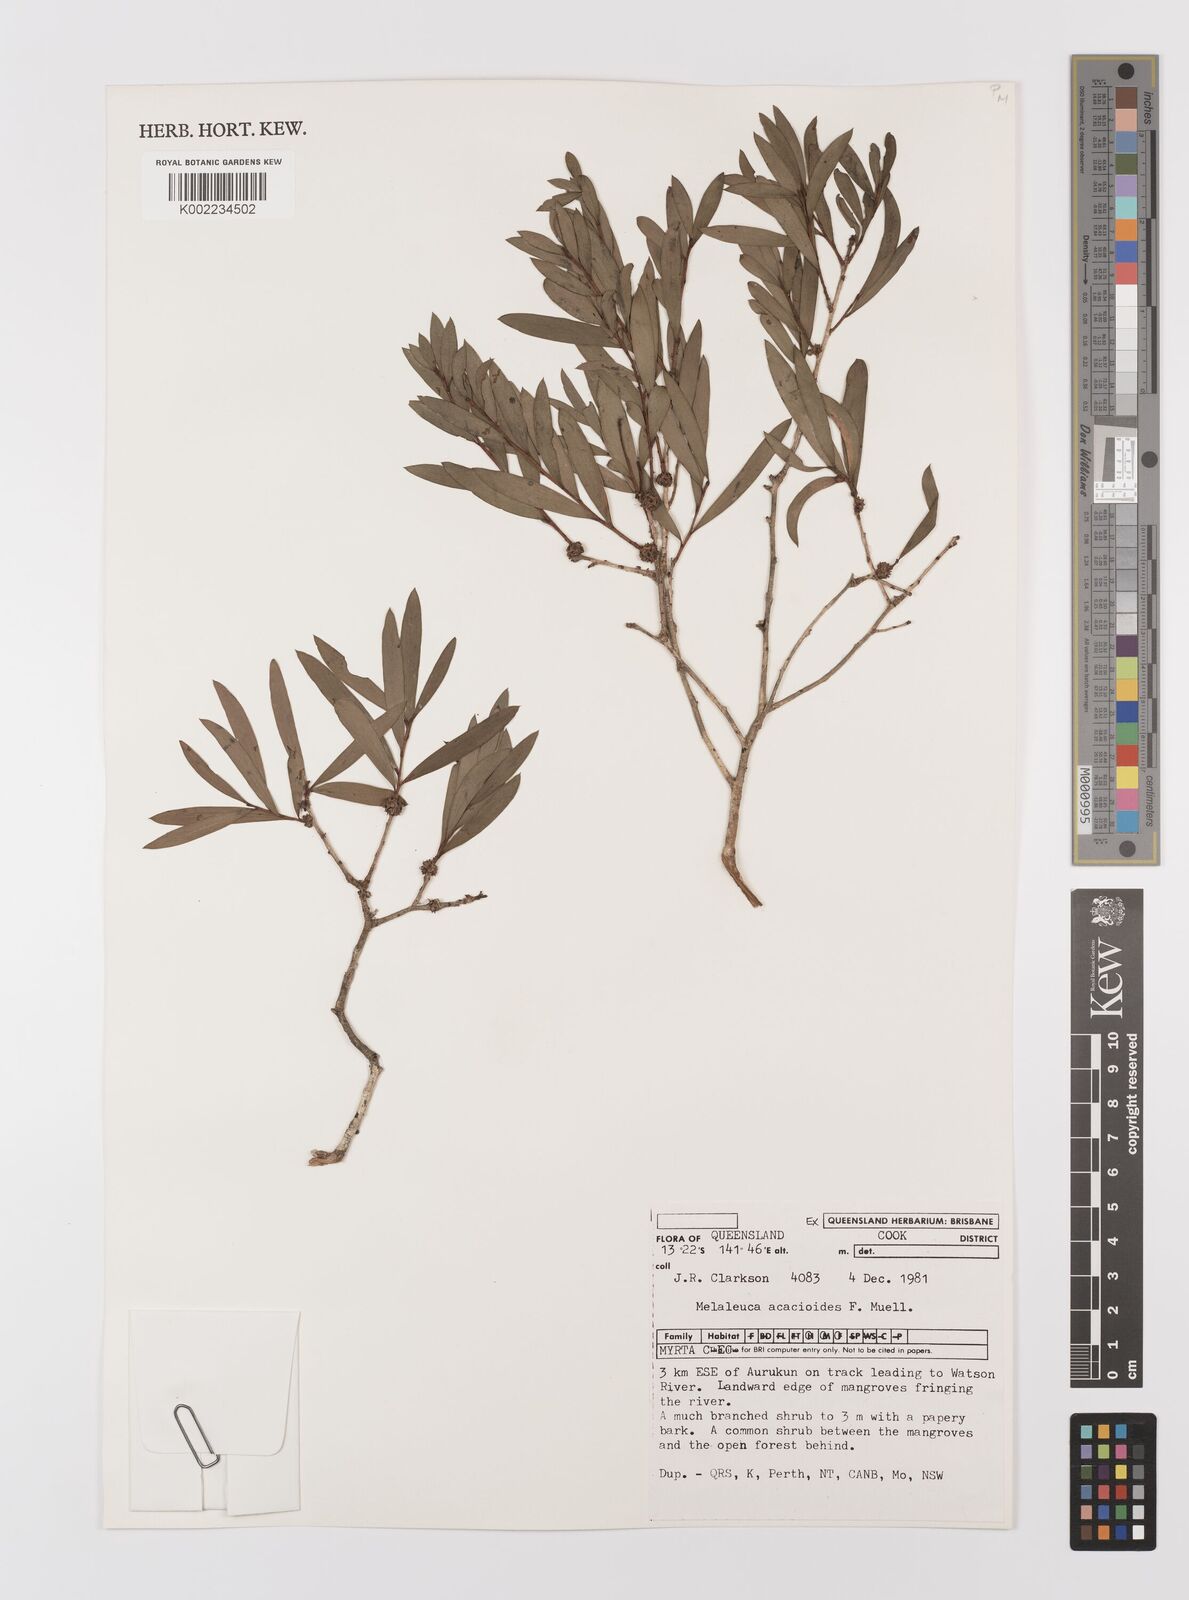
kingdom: Plantae
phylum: Tracheophyta
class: Magnoliopsida
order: Myrtales
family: Myrtaceae
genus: Melaleuca
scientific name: Melaleuca acacioides
